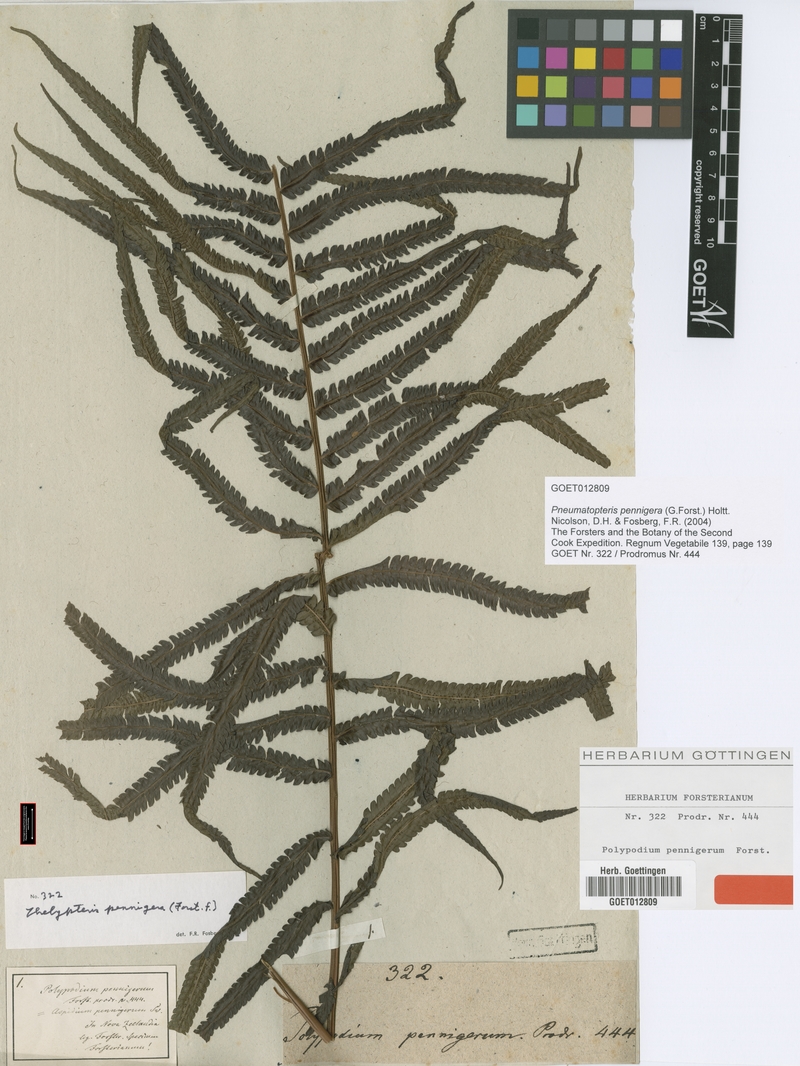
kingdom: Plantae
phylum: Tracheophyta
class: Polypodiopsida
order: Polypodiales
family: Thelypteridaceae
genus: Pakau
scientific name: Pakau pennigera
